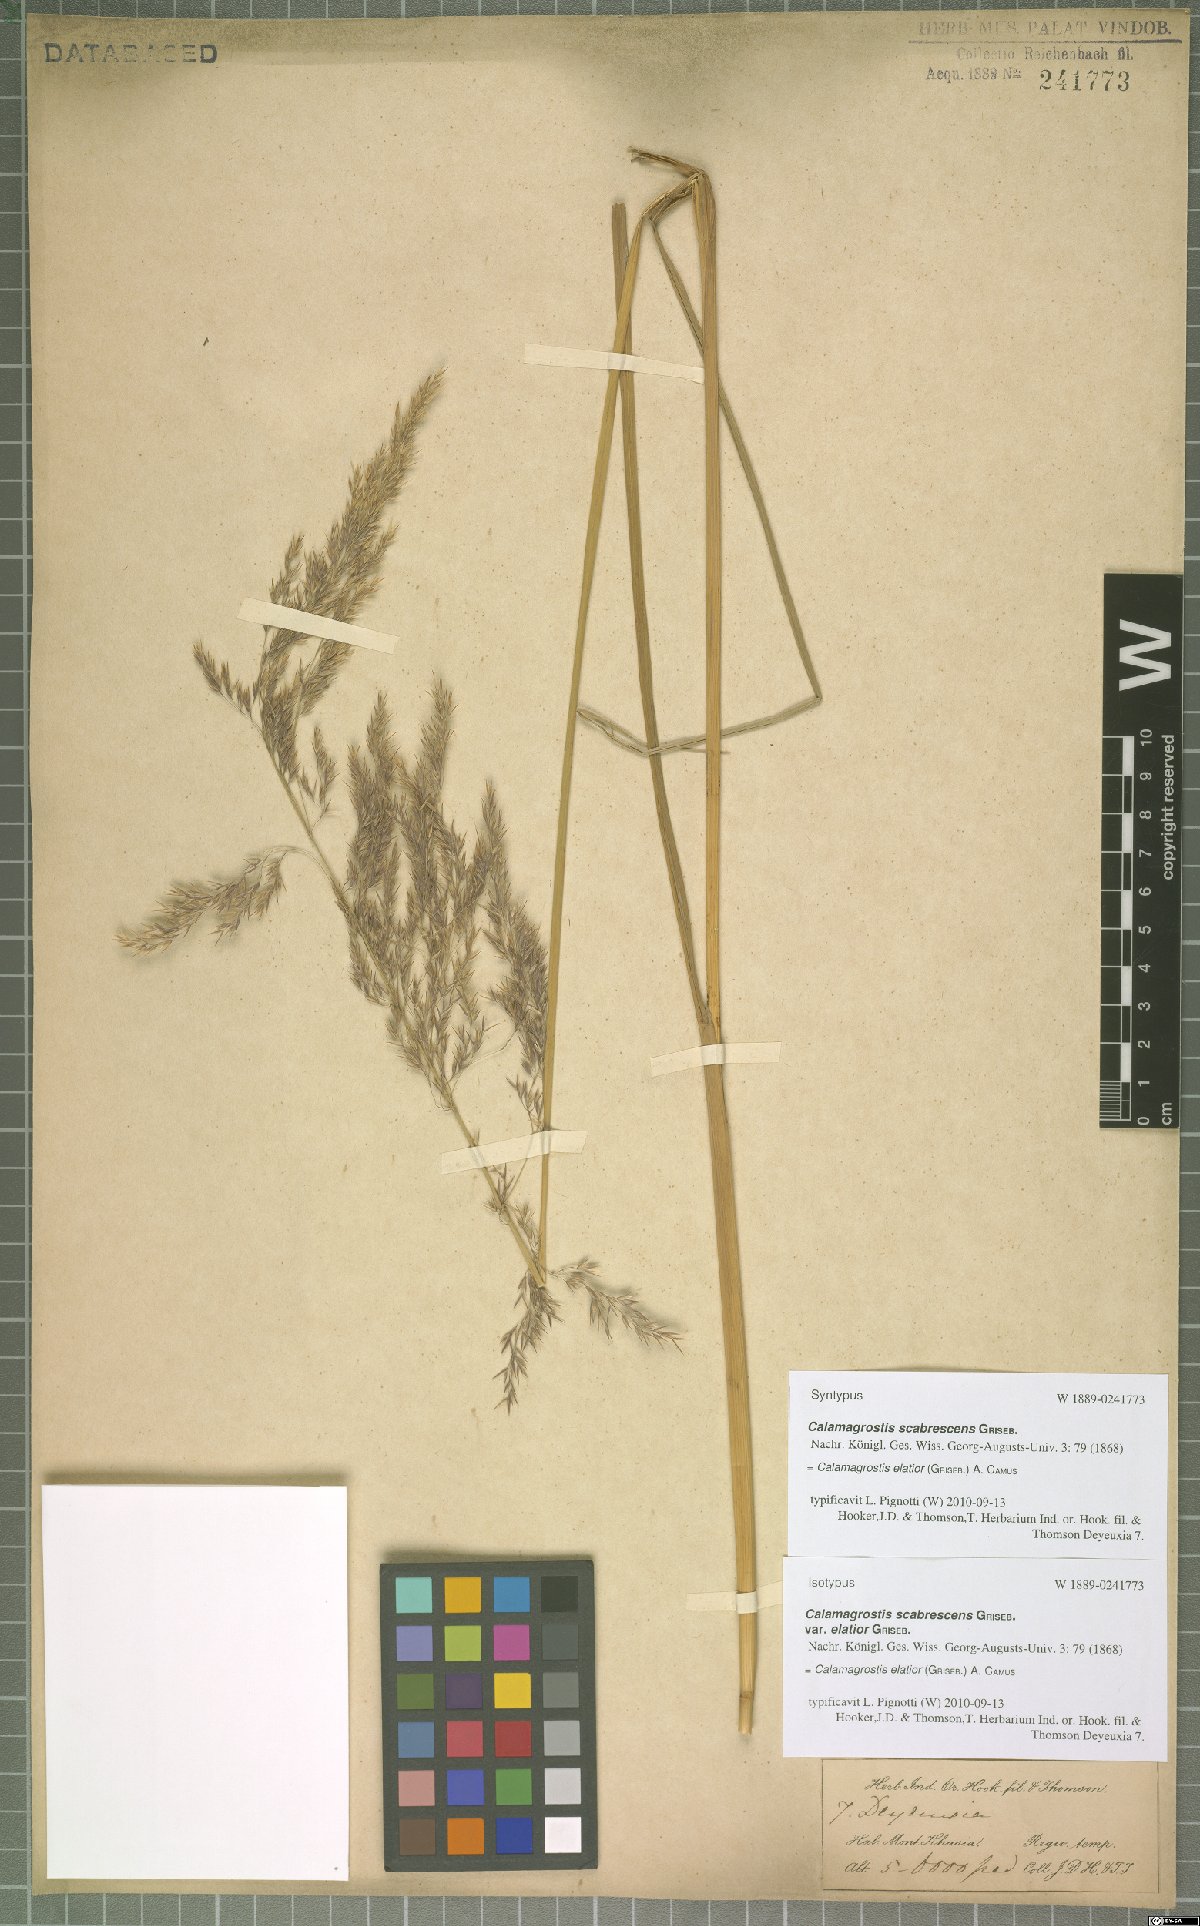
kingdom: Plantae
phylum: Tracheophyta
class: Liliopsida
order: Poales
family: Poaceae
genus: Calamagrostis
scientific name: Calamagrostis elatior
